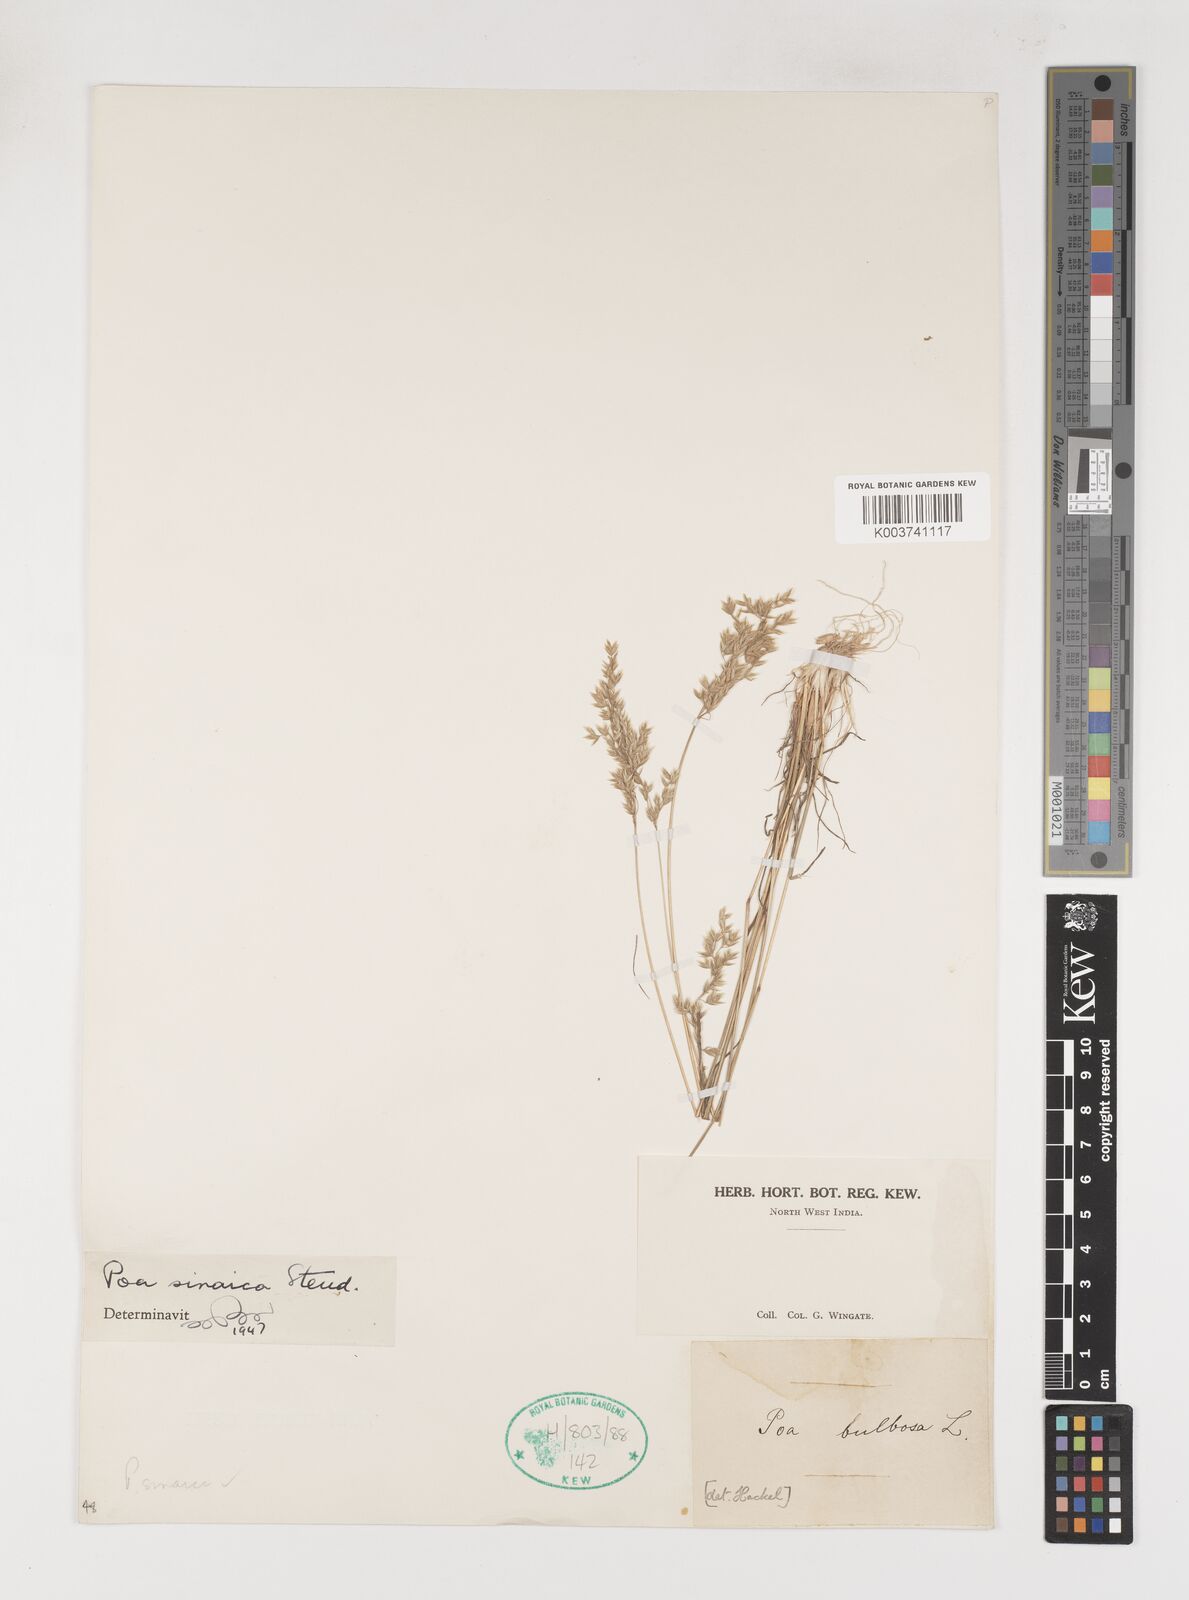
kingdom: Plantae
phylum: Tracheophyta
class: Liliopsida
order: Poales
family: Poaceae
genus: Poa
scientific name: Poa sinaica
